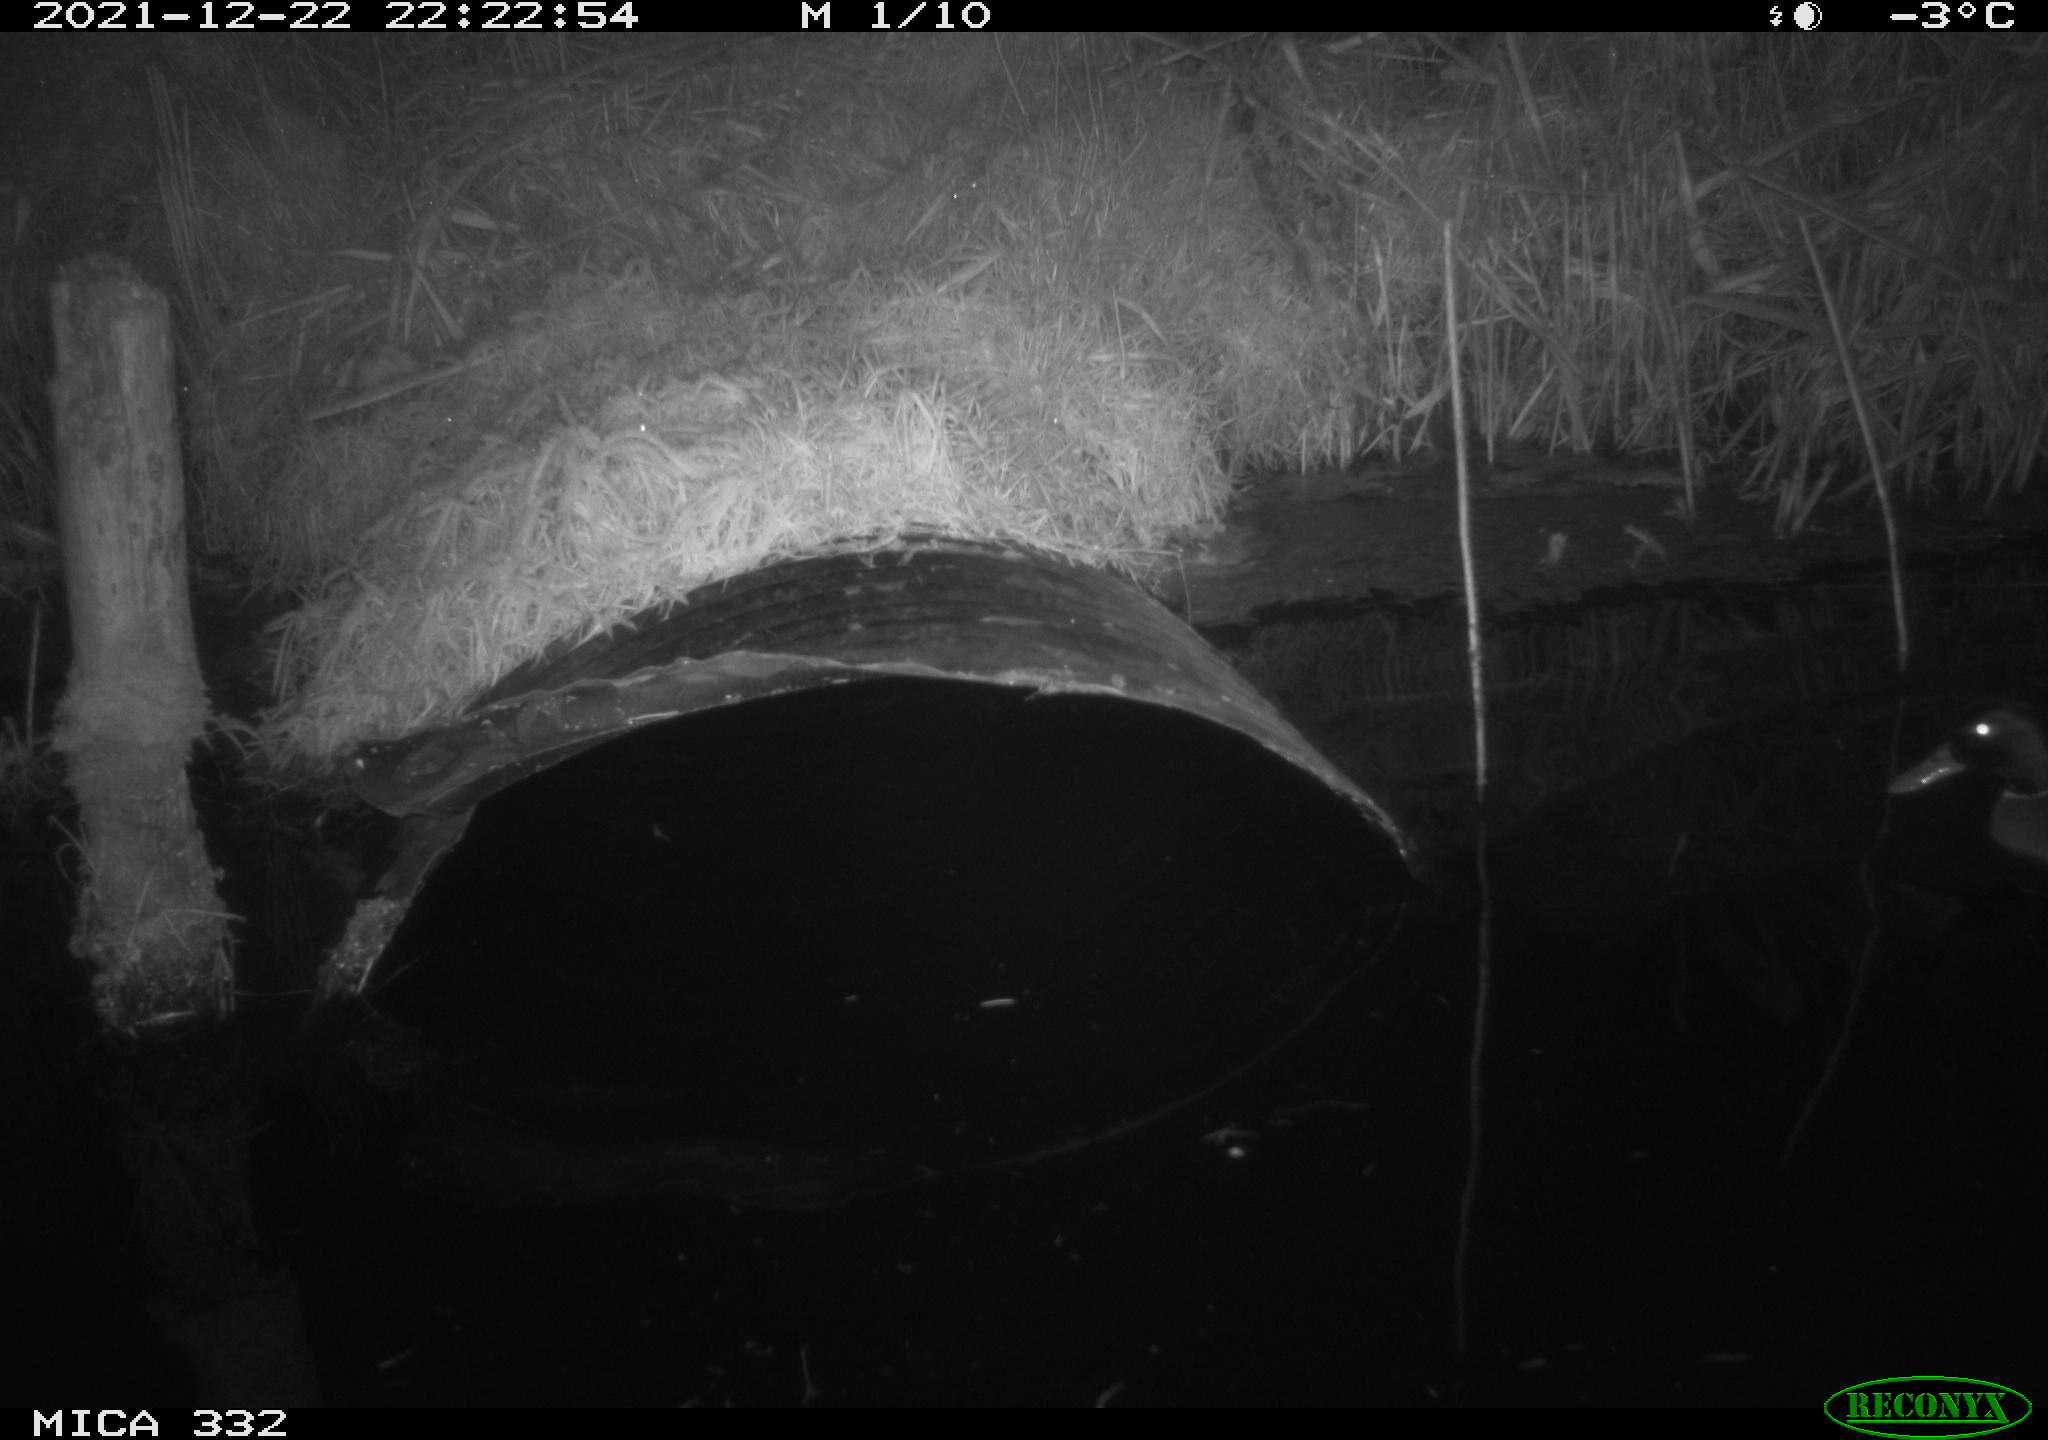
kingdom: Animalia
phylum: Chordata
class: Aves
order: Anseriformes
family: Anatidae
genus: Anas
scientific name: Anas platyrhynchos
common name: Mallard
